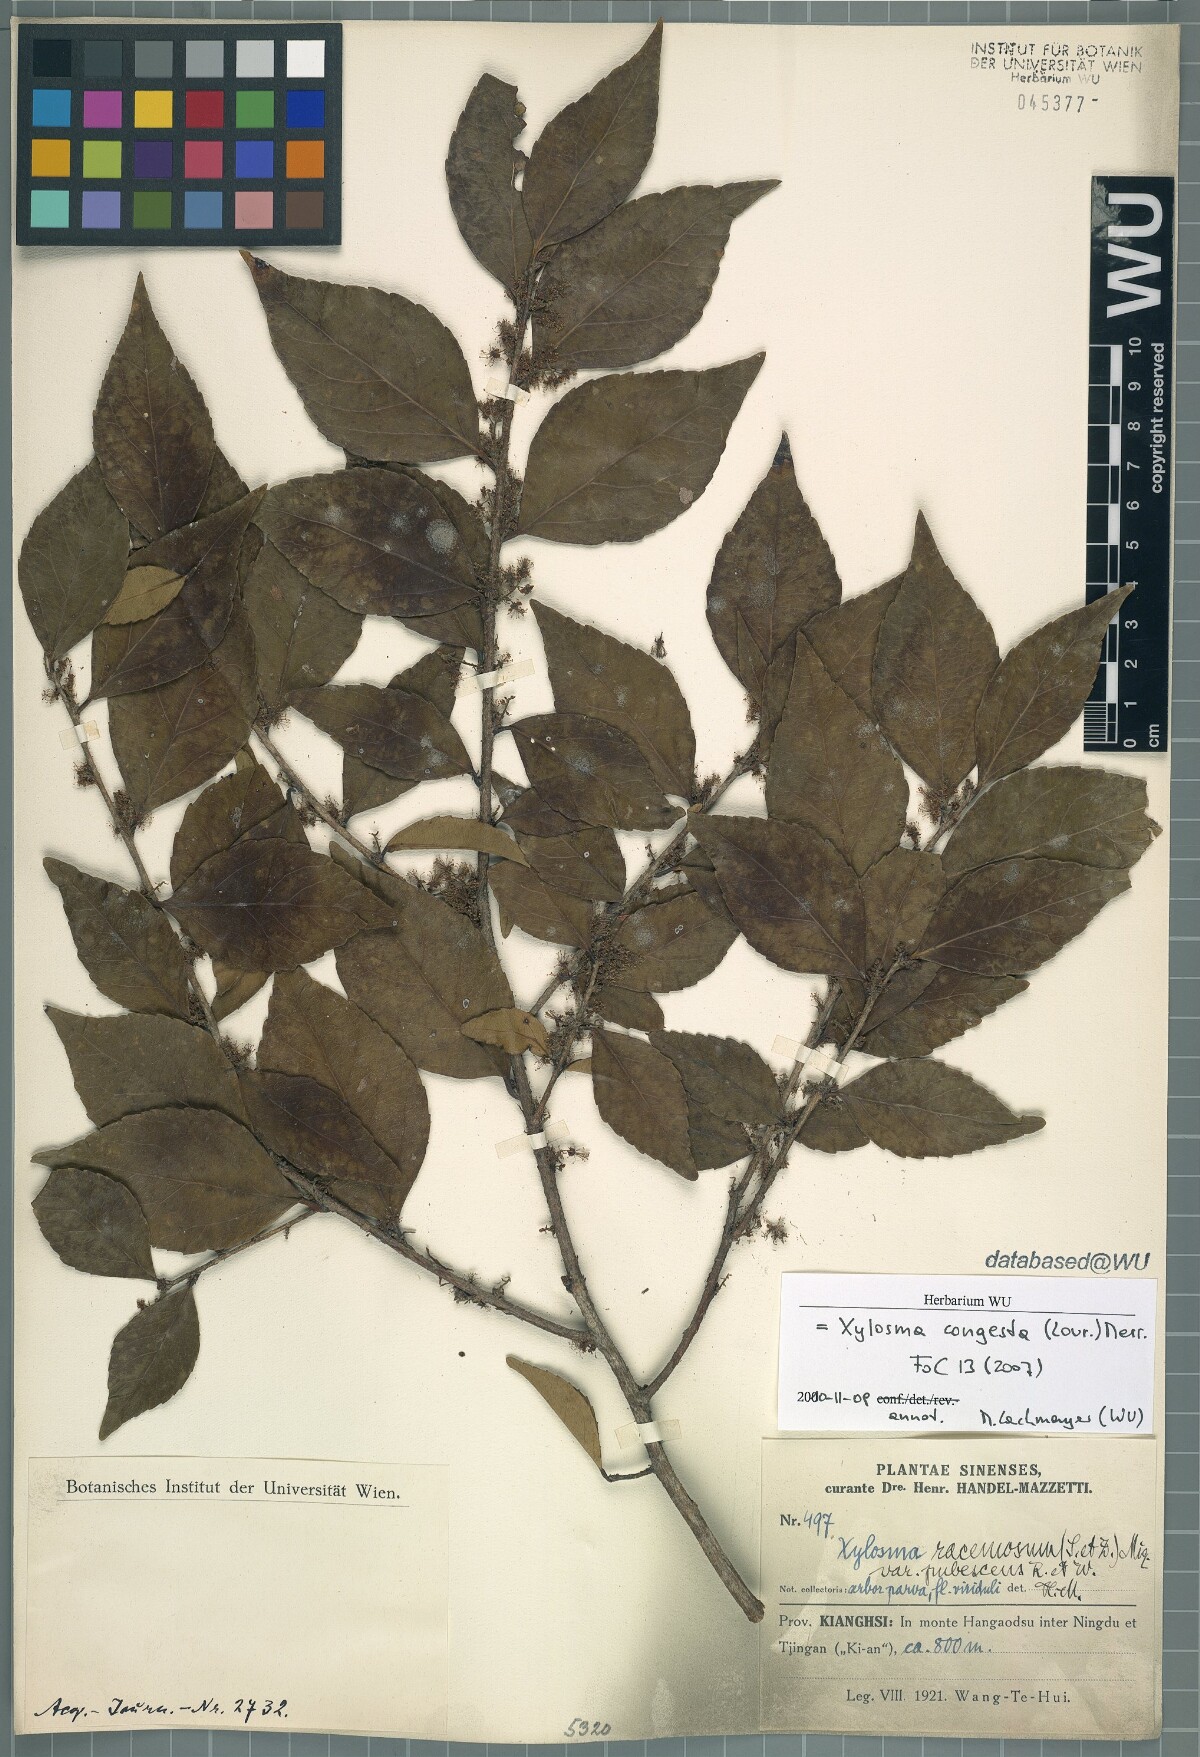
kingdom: Plantae
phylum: Tracheophyta
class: Magnoliopsida
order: Malpighiales
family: Salicaceae
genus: Xylosma
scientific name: Xylosma racemosum
